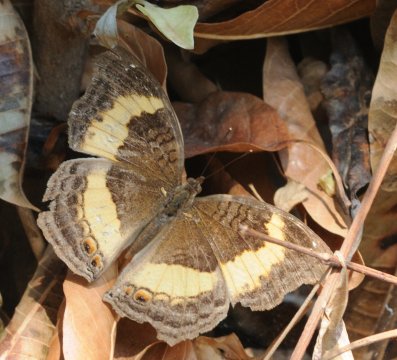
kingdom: Animalia
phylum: Arthropoda
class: Insecta
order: Lepidoptera
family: Nymphalidae
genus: Junonia
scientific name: Junonia terea
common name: Soldier Pansy
